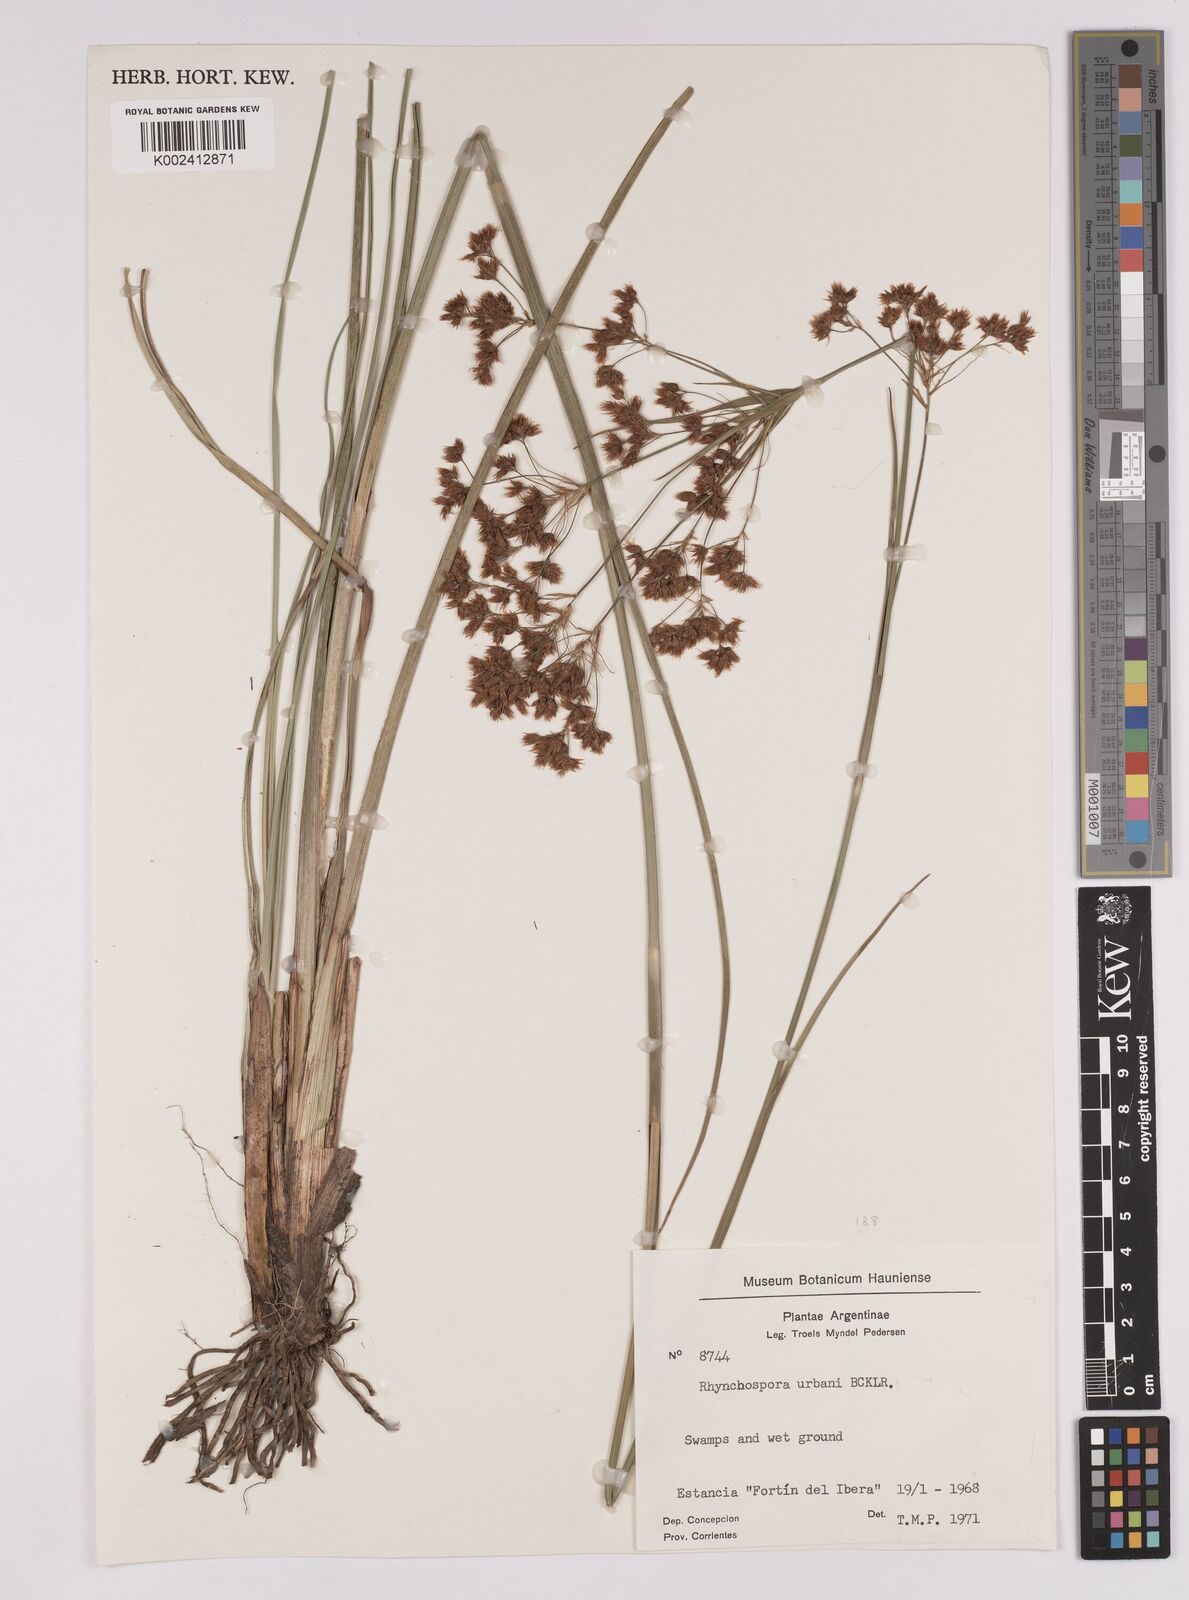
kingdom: Plantae
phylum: Tracheophyta
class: Liliopsida
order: Poales
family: Cyperaceae
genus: Rhynchospora
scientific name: Rhynchospora urbanii
